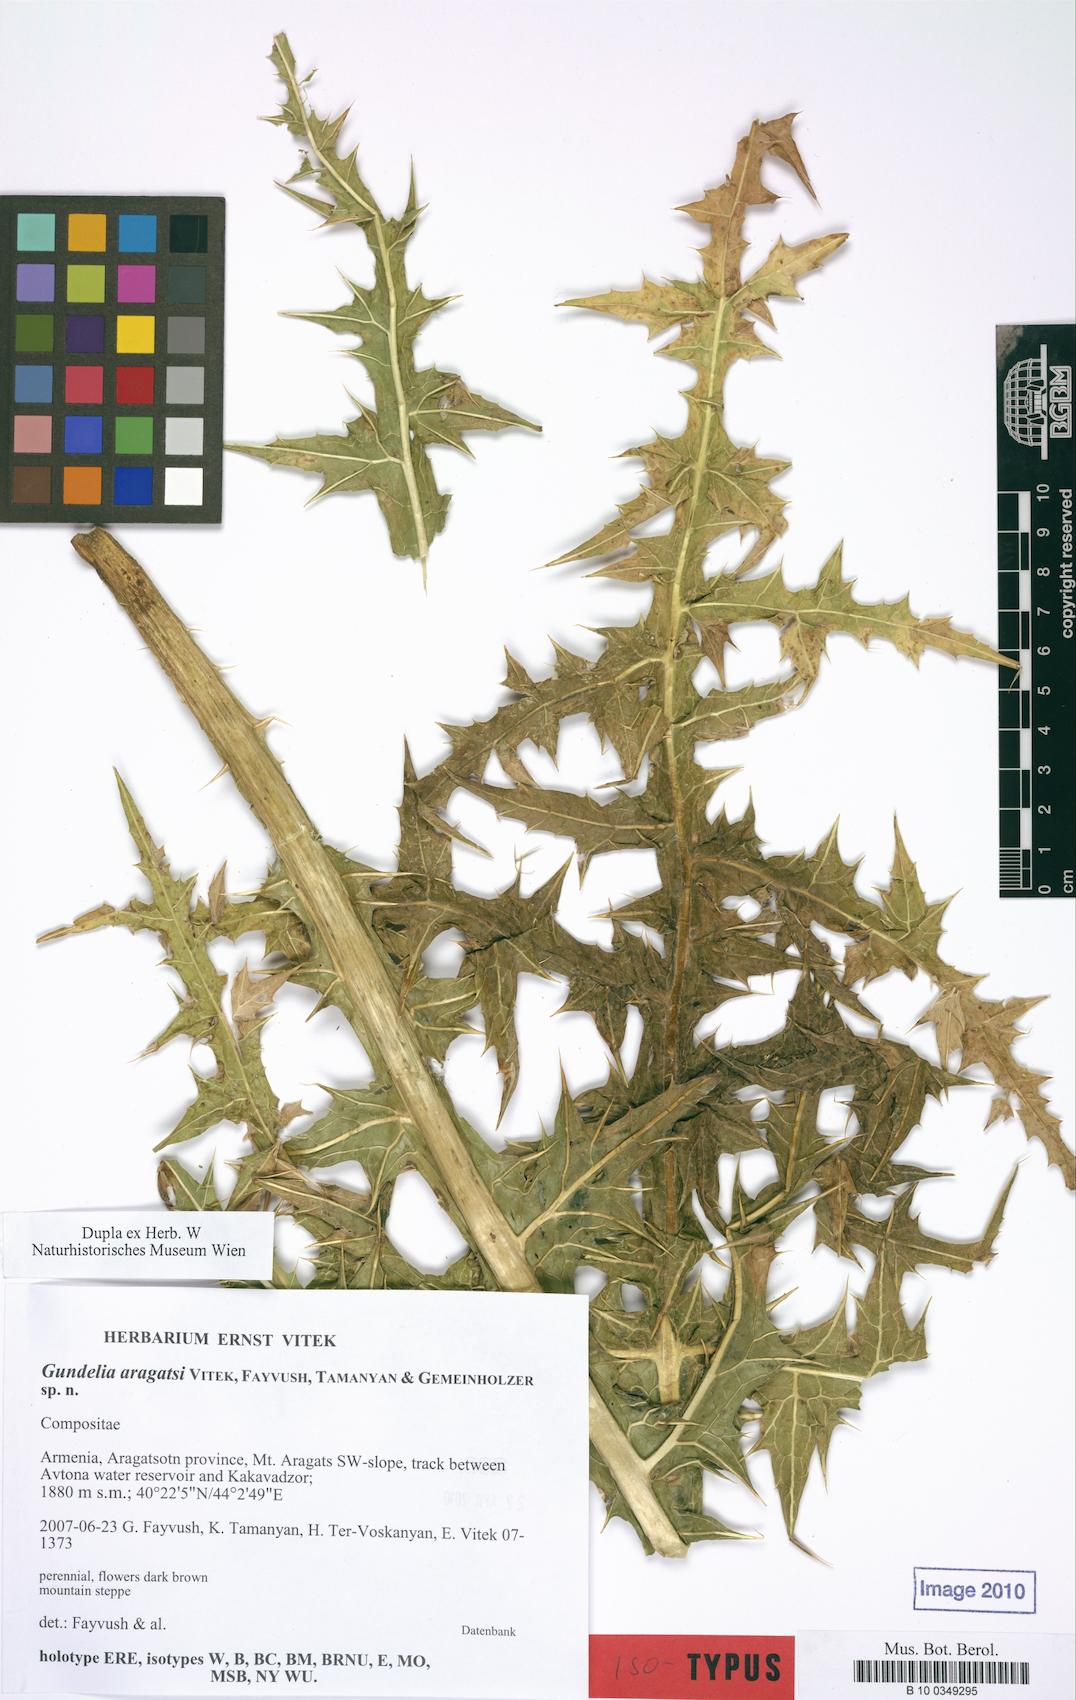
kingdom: Plantae
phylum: Tracheophyta
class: Magnoliopsida
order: Asterales
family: Asteraceae
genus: Gundelia
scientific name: Gundelia aragatsi
